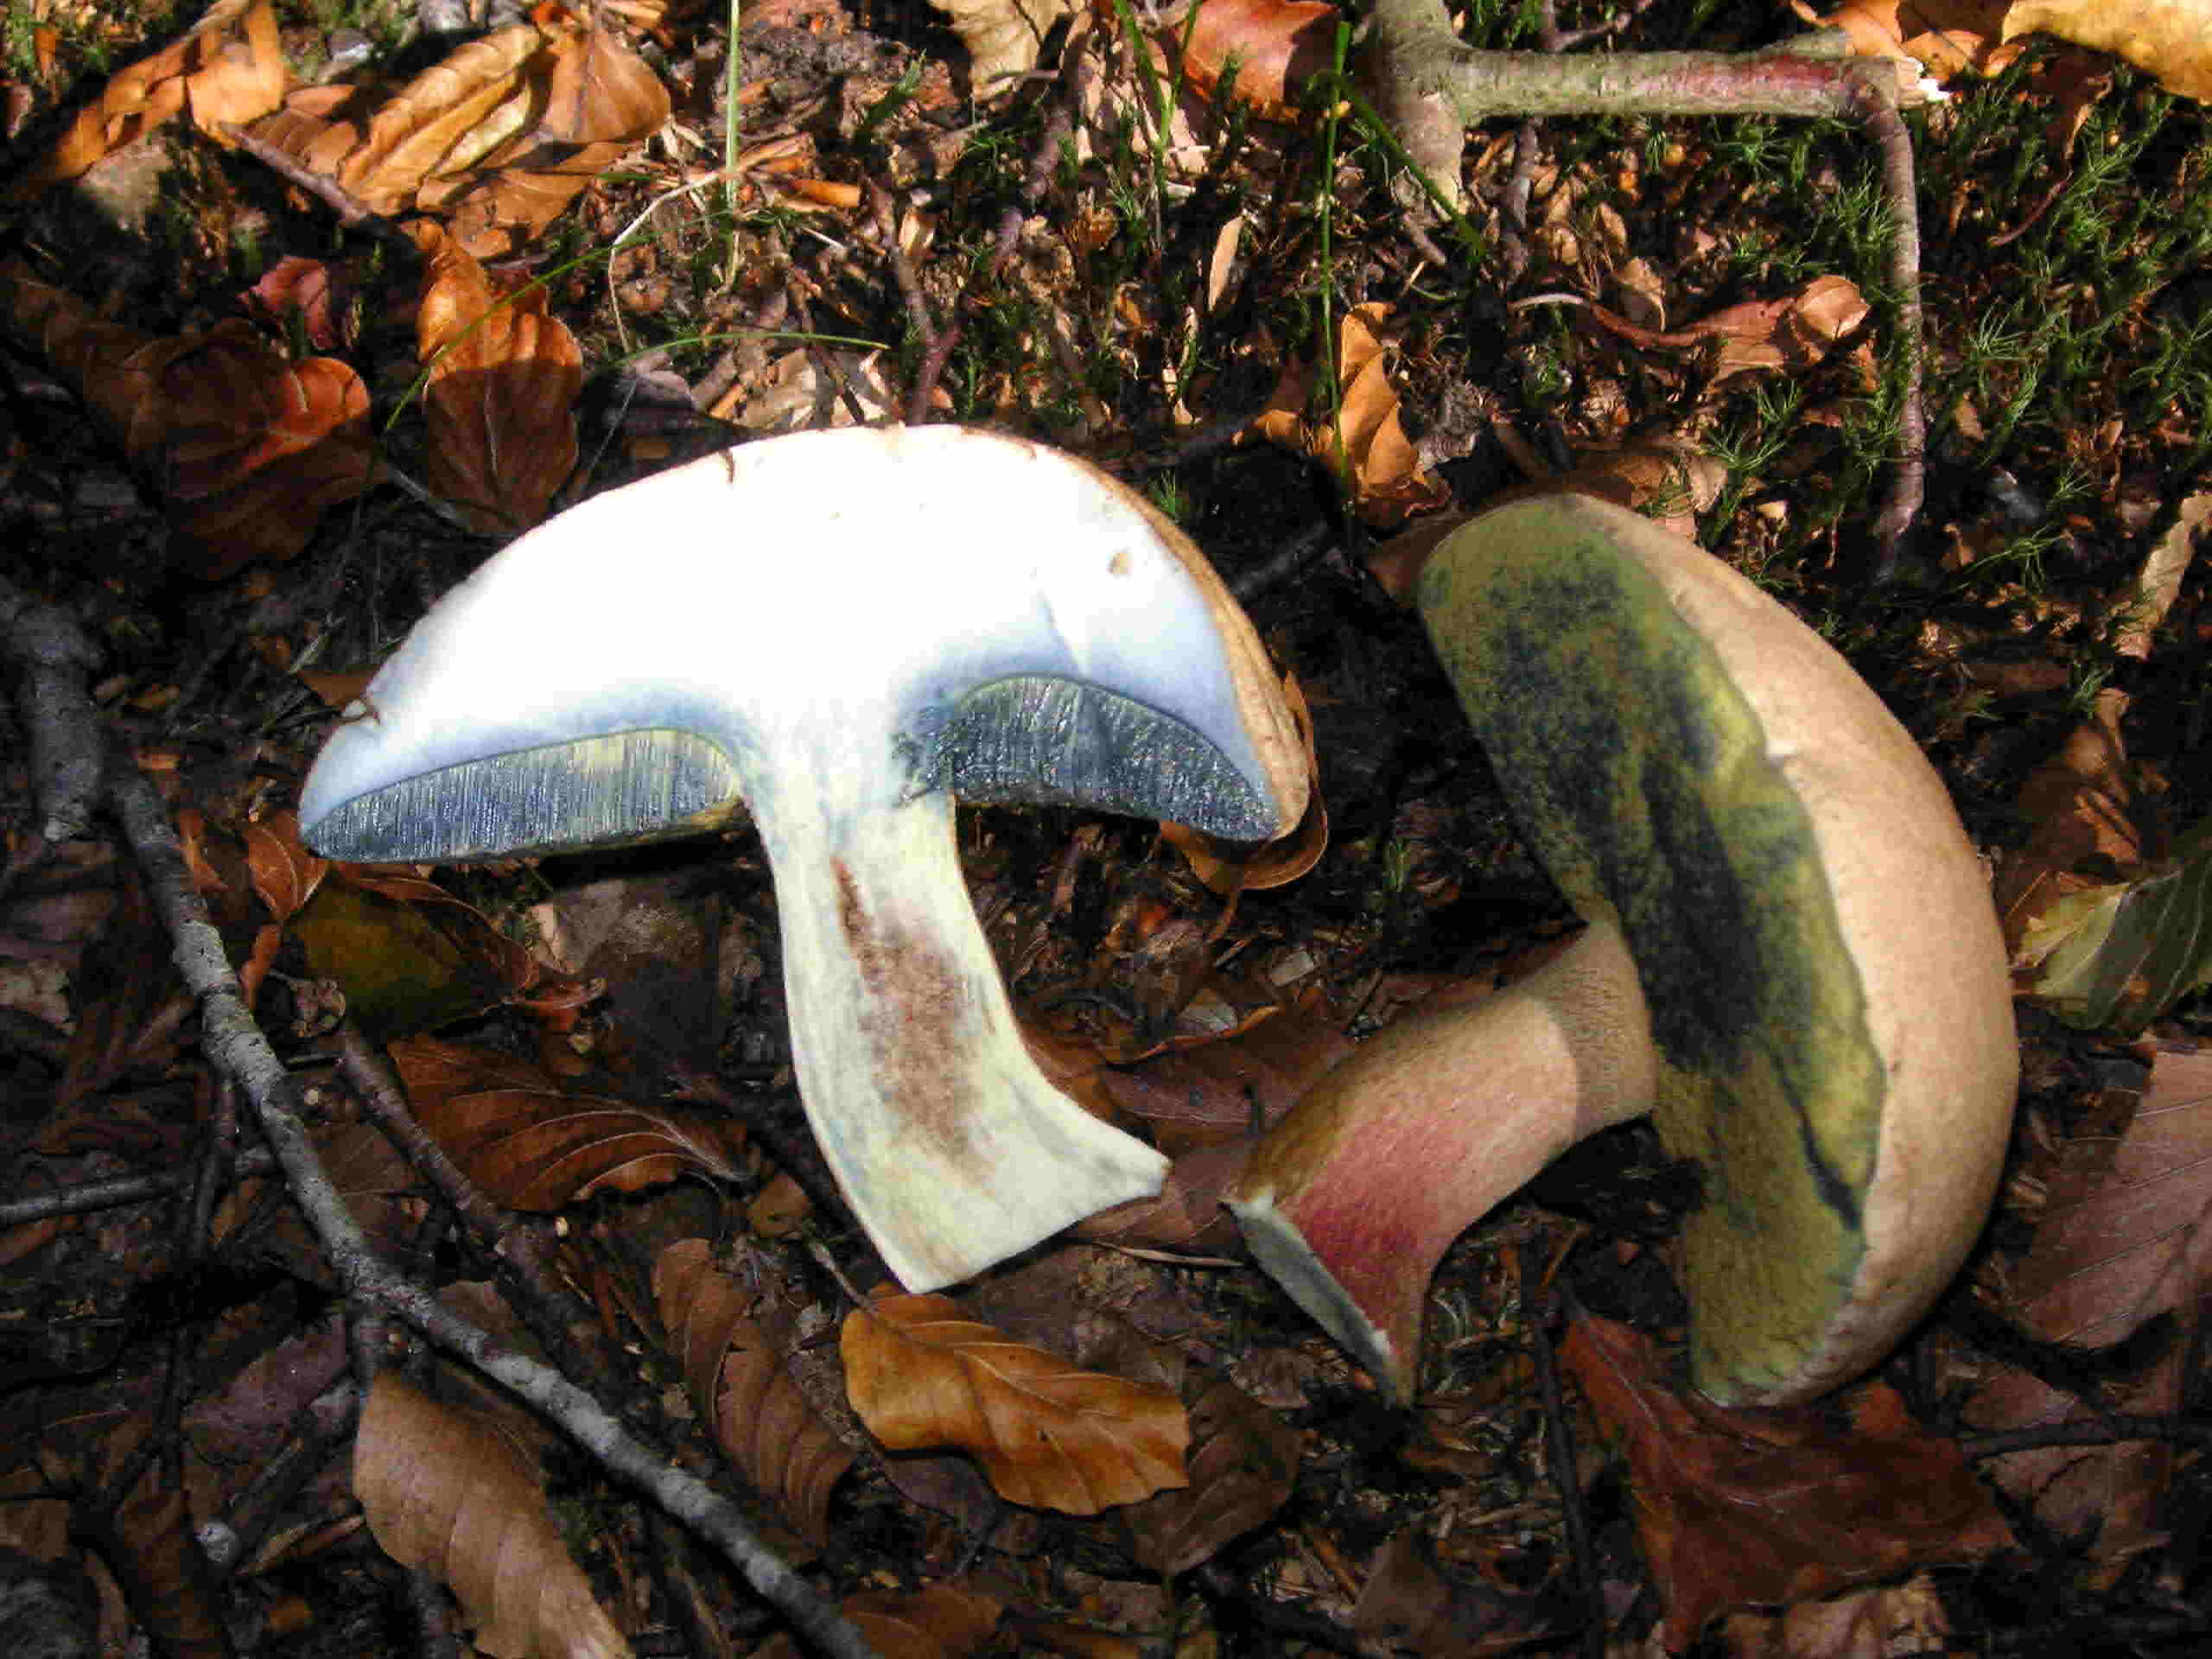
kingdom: Fungi
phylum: Basidiomycota
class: Agaricomycetes
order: Boletales
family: Boletaceae
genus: Caloboletus
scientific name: Caloboletus calopus
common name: skønfodet rørhat
